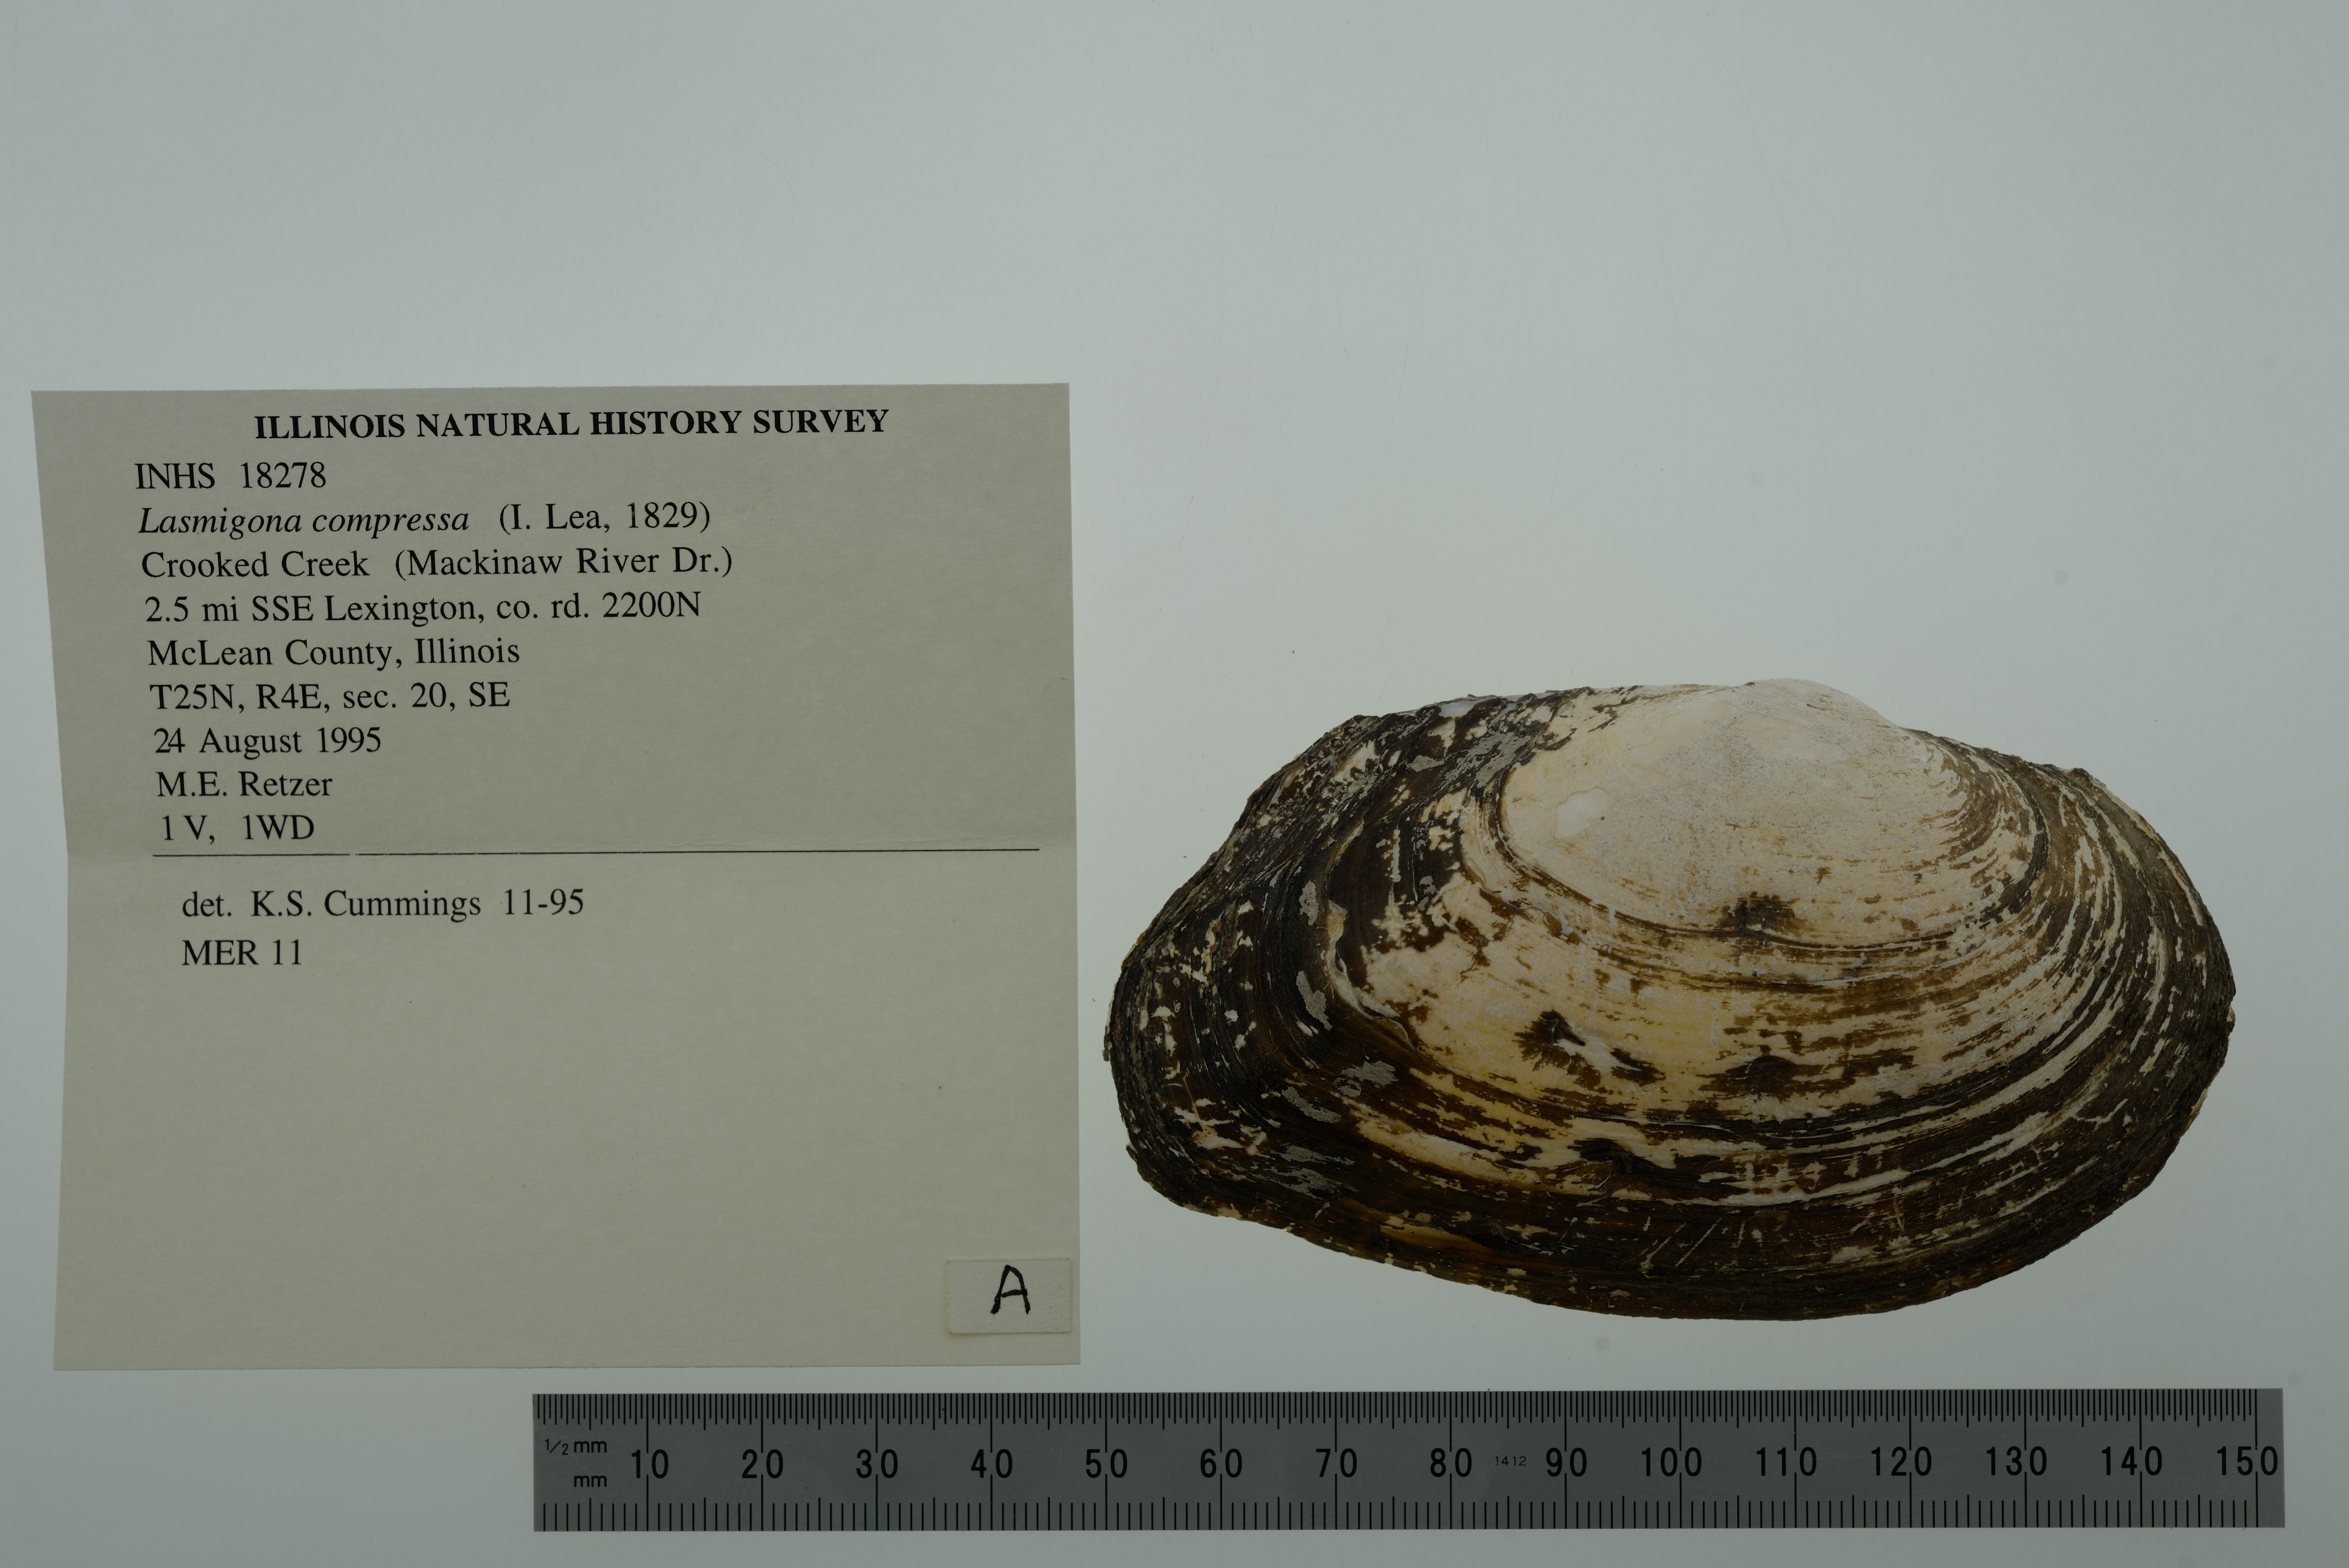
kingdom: Animalia
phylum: Mollusca
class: Bivalvia
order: Unionida
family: Unionidae
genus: Lasmigona
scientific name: Lasmigona compressa
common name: Creek heelsplitter
